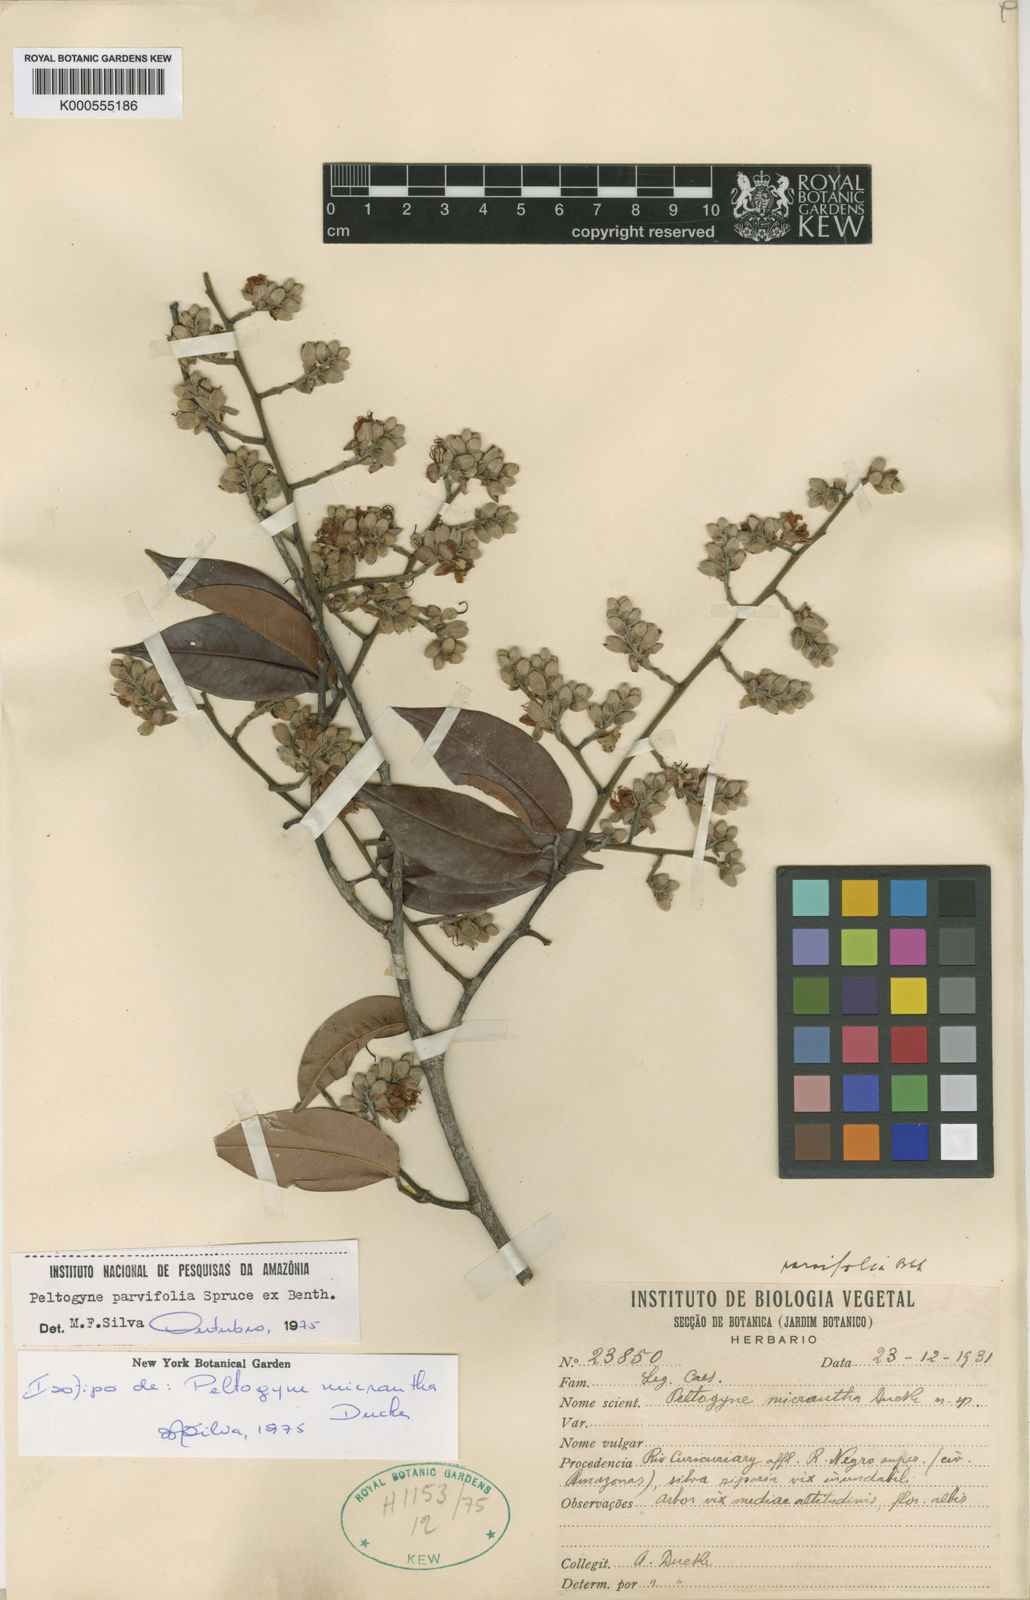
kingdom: Plantae
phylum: Tracheophyta
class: Magnoliopsida
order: Fabales
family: Fabaceae
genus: Peltogyne
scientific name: Peltogyne parvifolia
